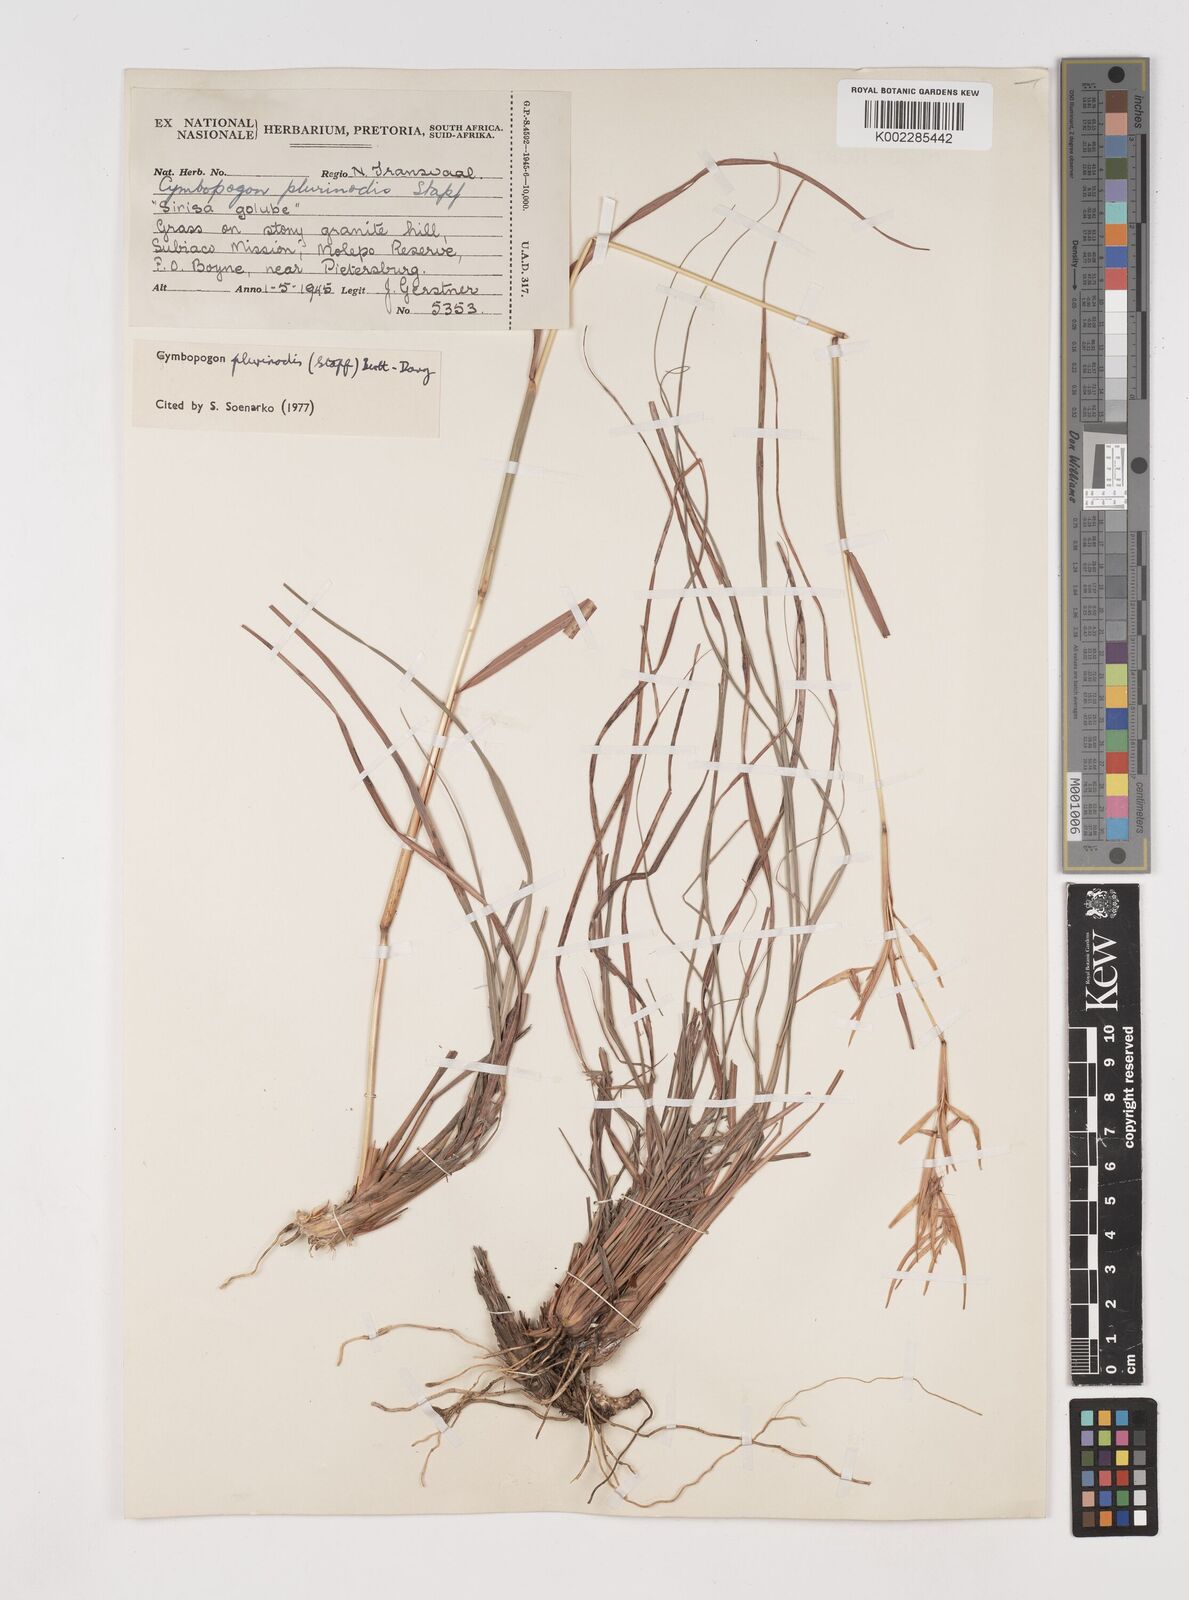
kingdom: Plantae
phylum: Tracheophyta
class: Liliopsida
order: Poales
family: Poaceae
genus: Cymbopogon
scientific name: Cymbopogon
